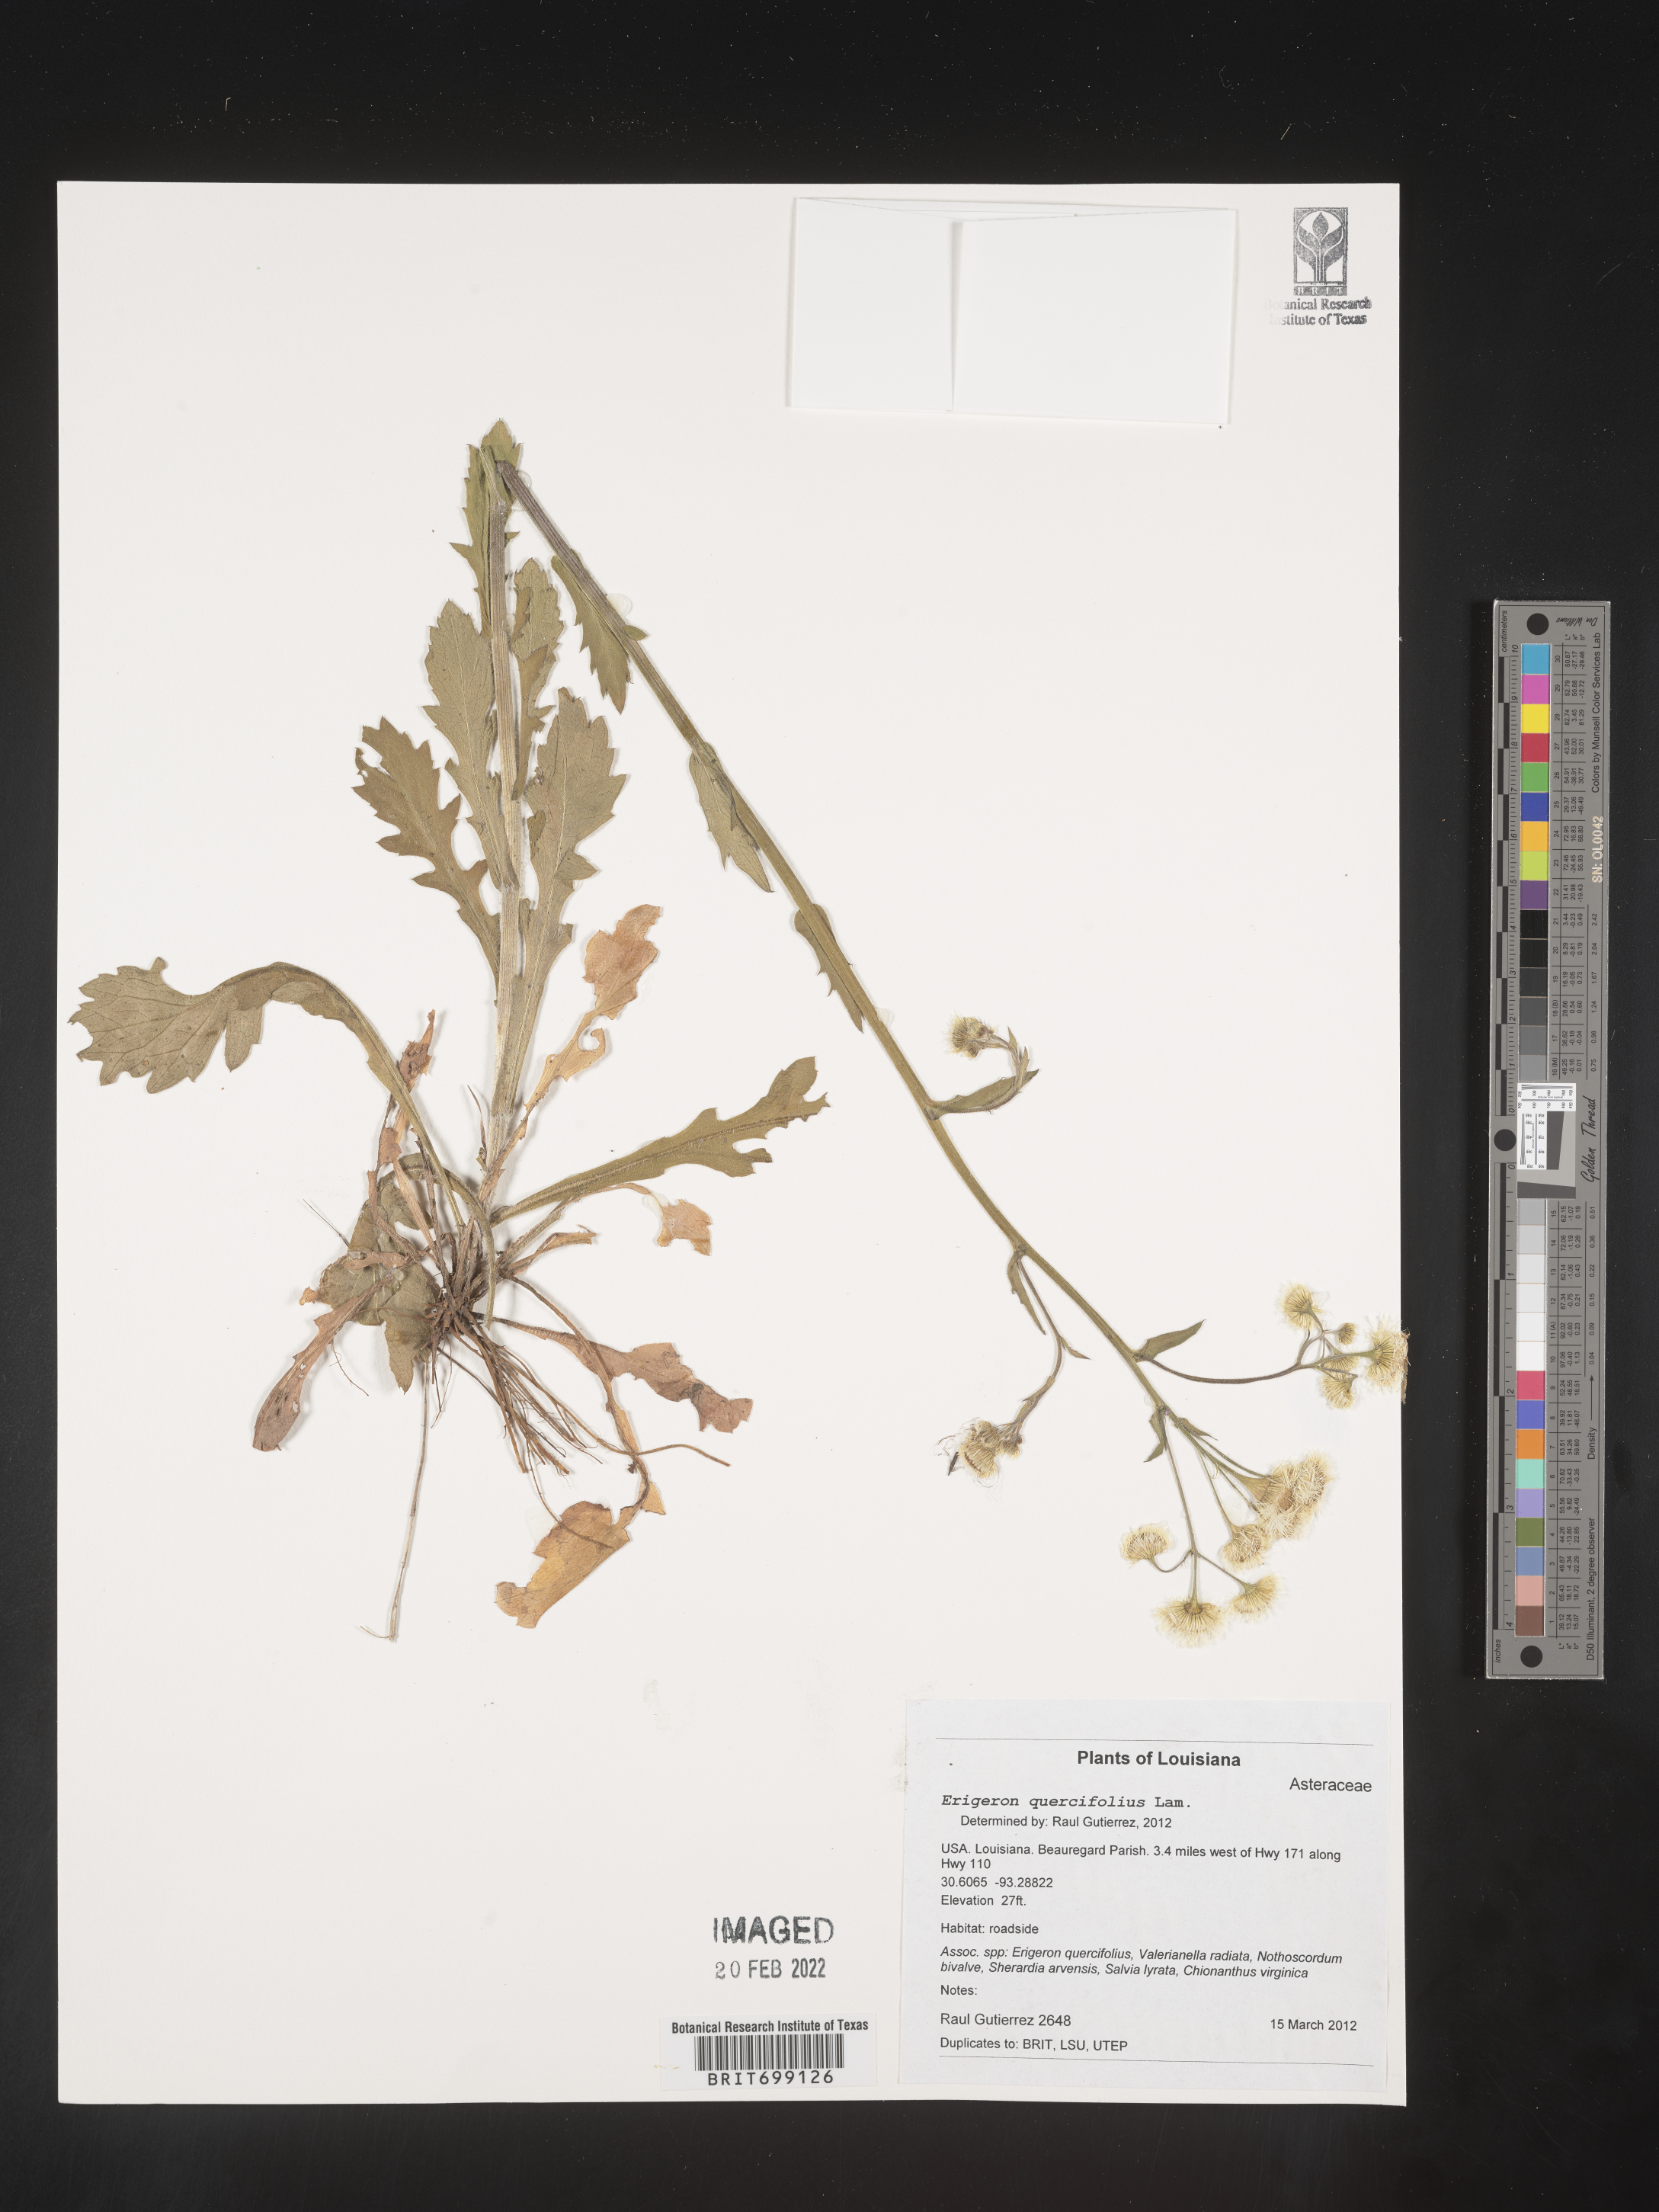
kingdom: Plantae
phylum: Tracheophyta
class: Magnoliopsida
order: Asterales
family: Asteraceae
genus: Erigeron
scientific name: Erigeron quercifolius
